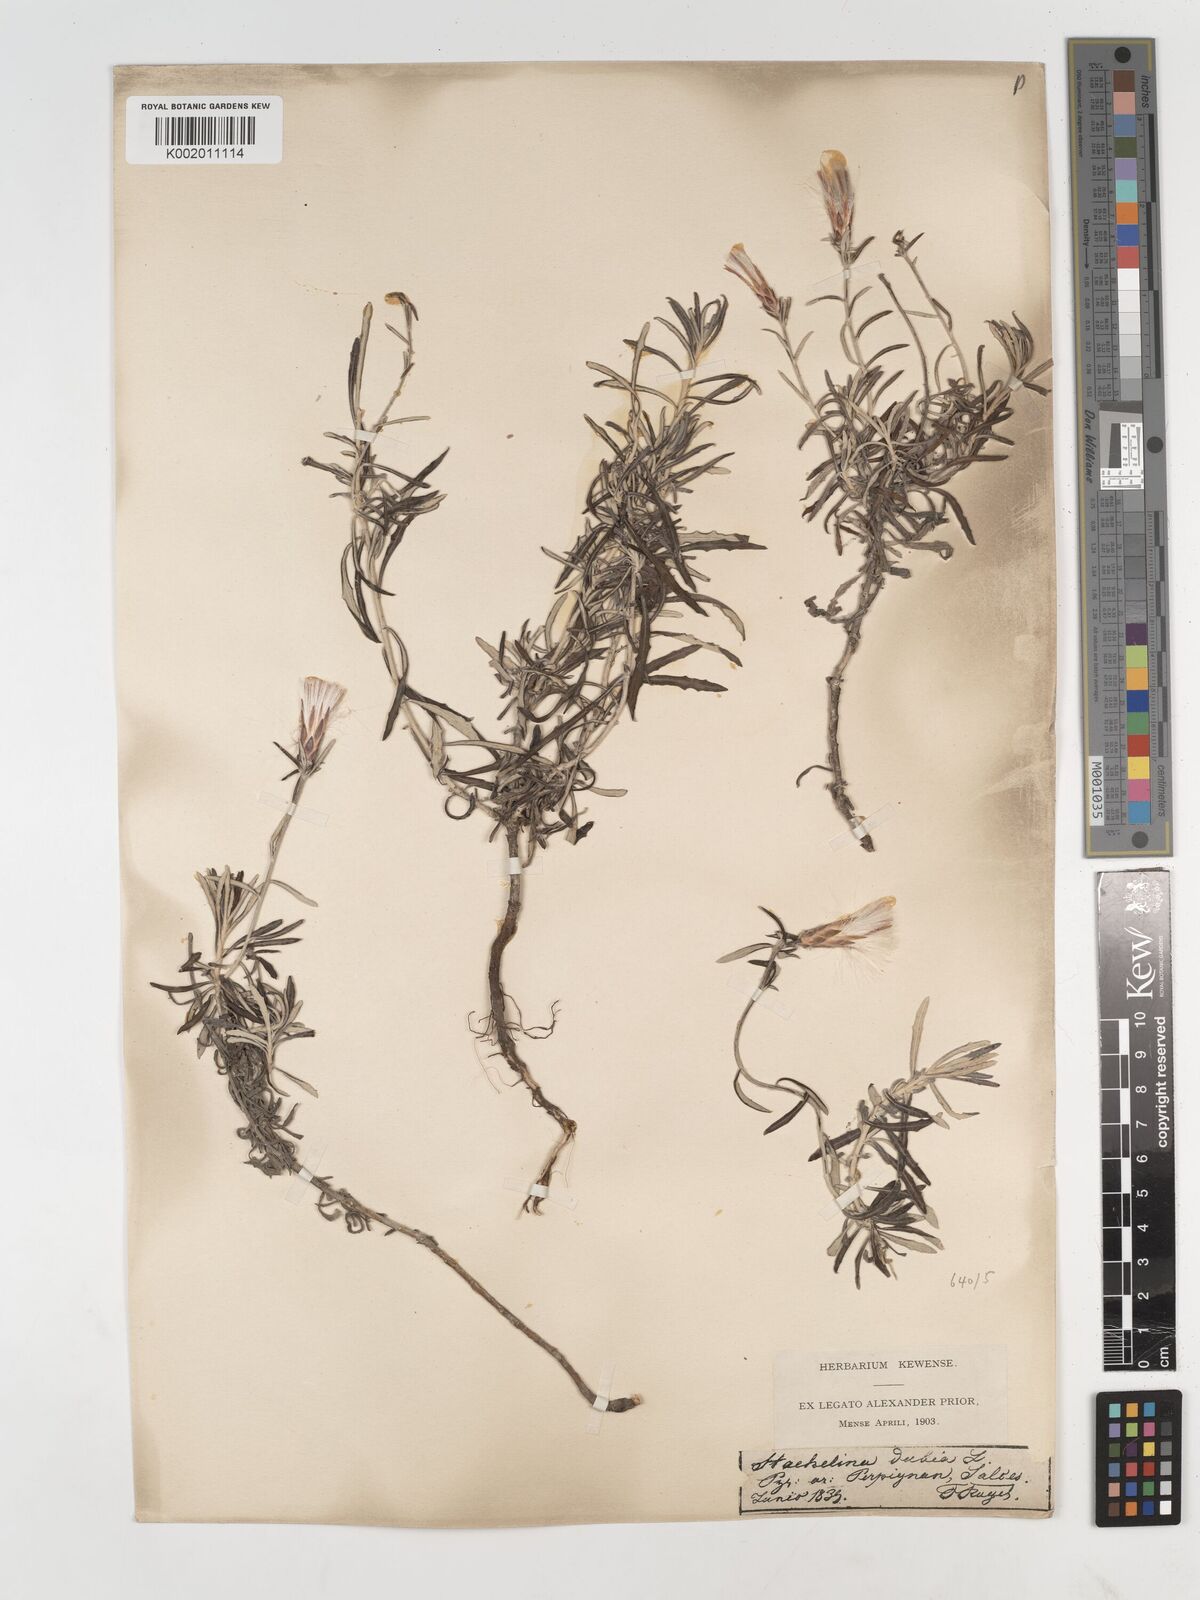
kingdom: Plantae
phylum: Tracheophyta
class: Magnoliopsida
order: Asterales
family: Asteraceae
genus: Staehelina
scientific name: Staehelina dubia
